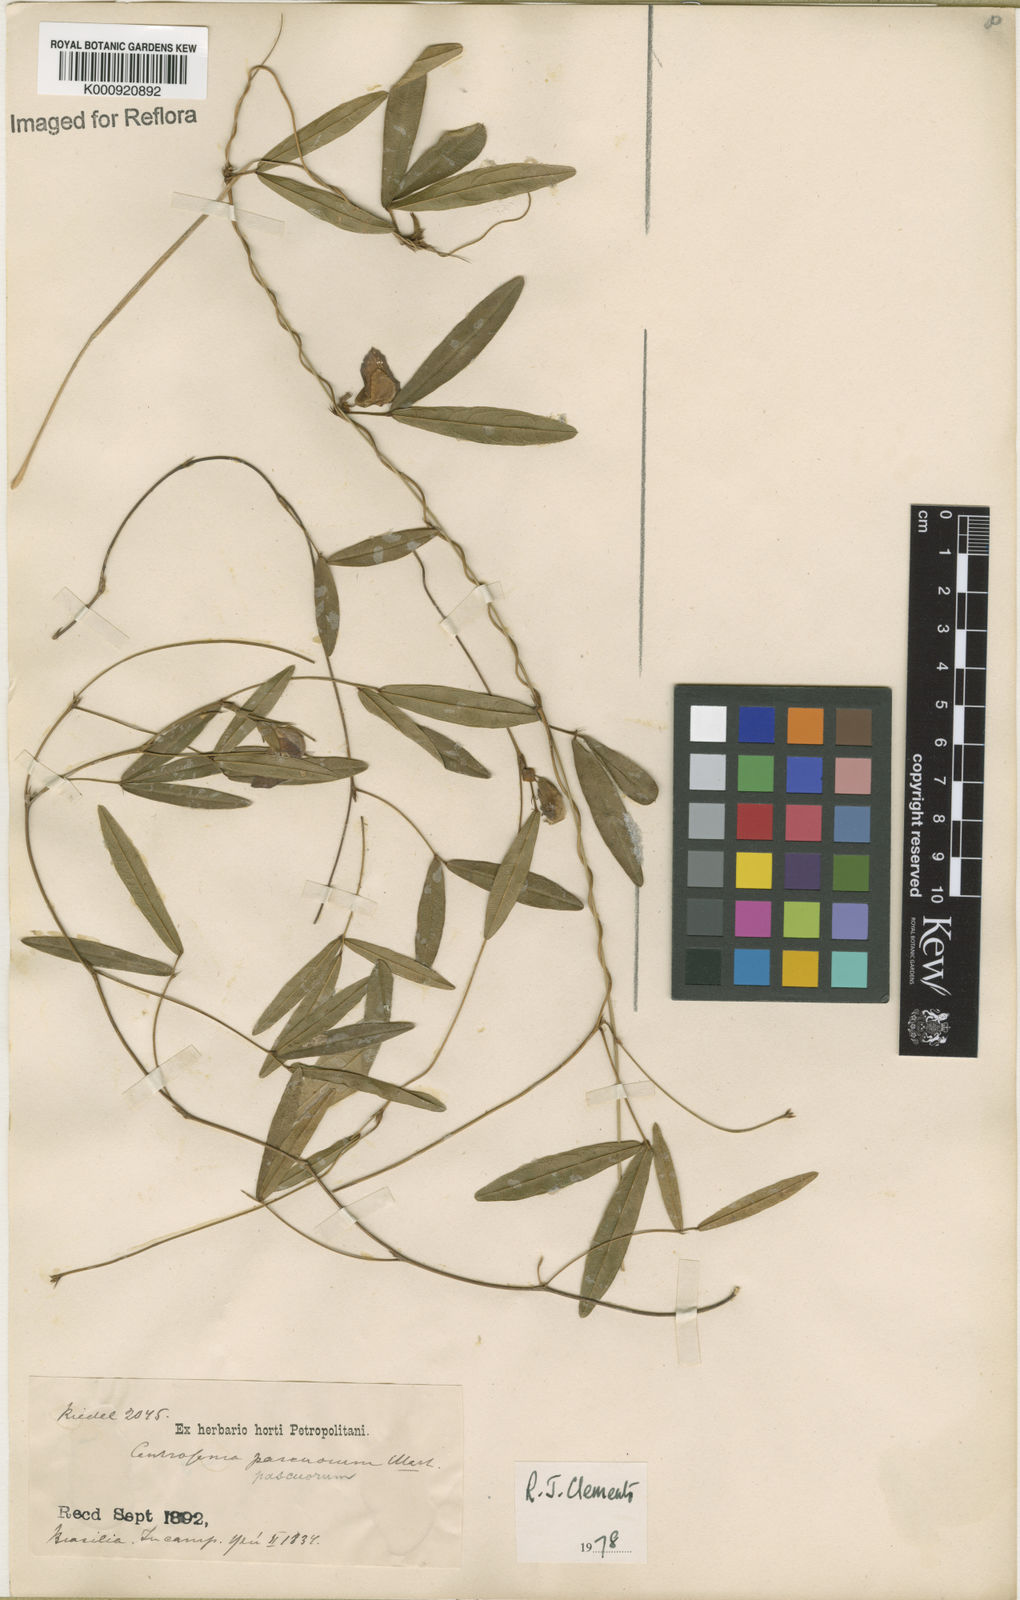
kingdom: Plantae
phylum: Tracheophyta
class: Magnoliopsida
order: Fabales
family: Fabaceae
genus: Centrosema
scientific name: Centrosema brasilianum
